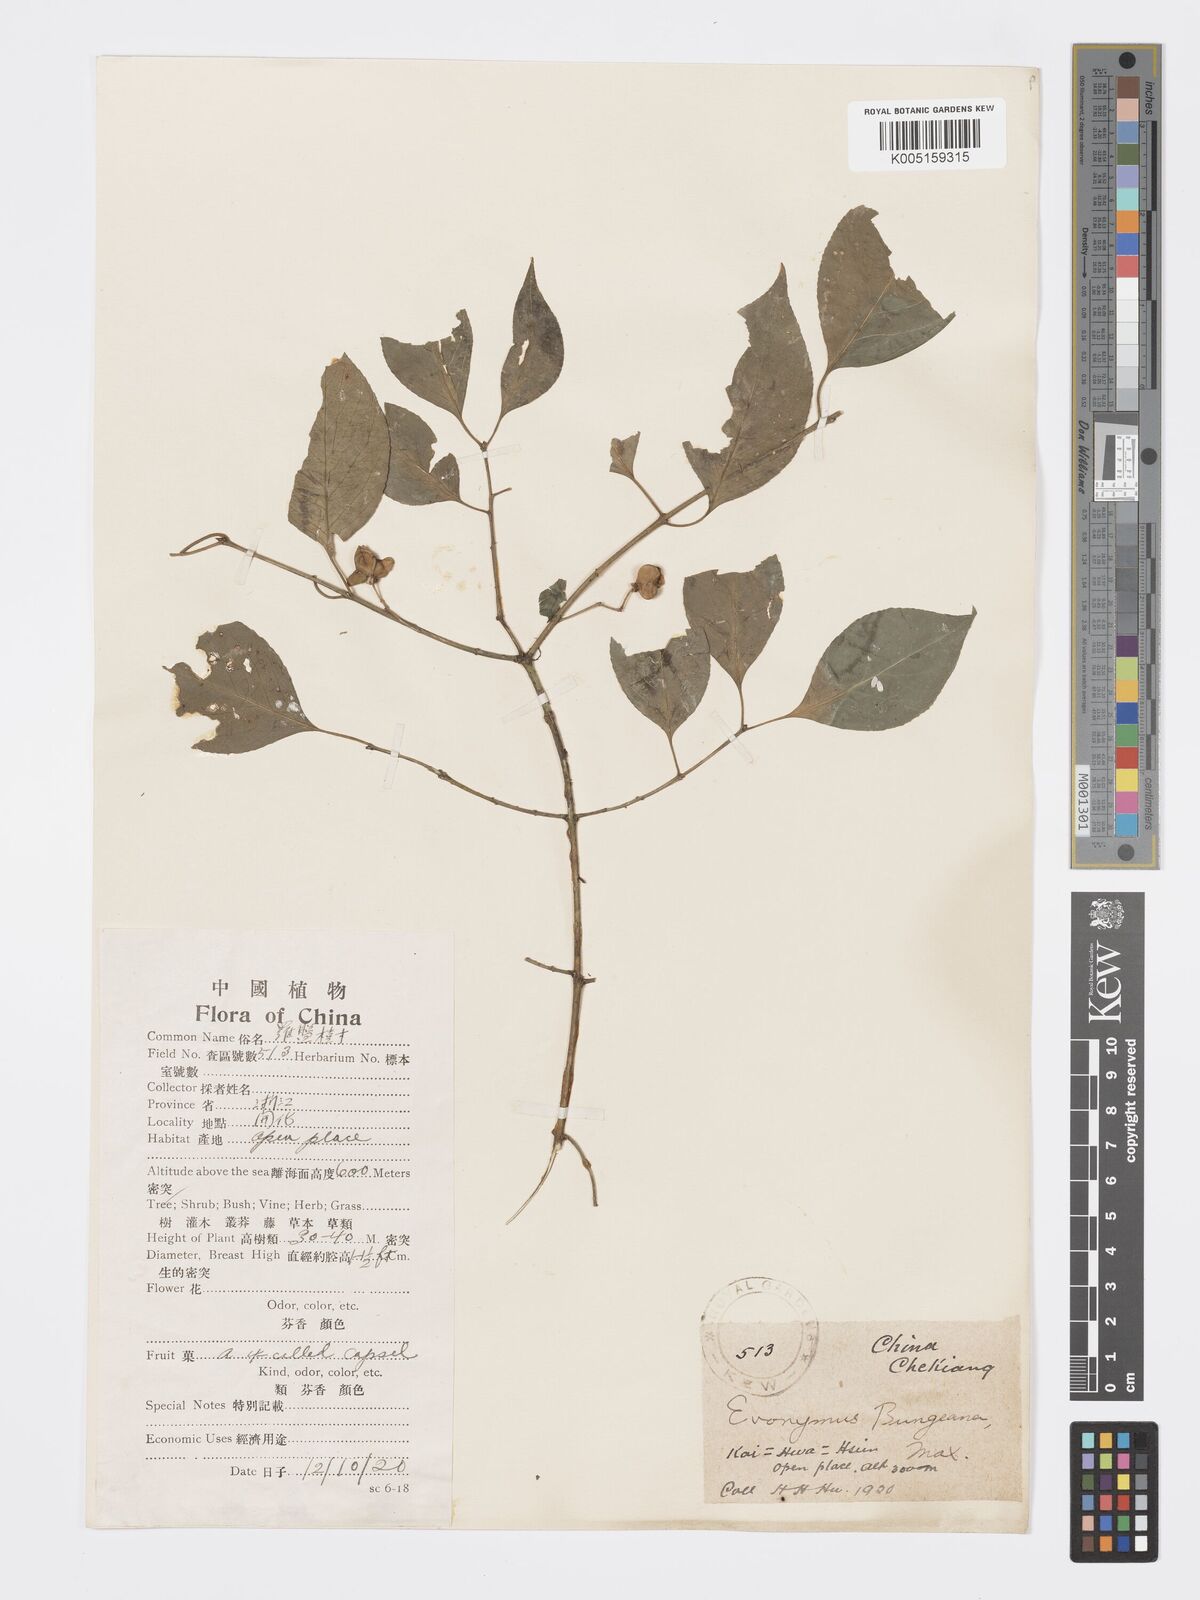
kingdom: Plantae
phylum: Tracheophyta
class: Magnoliopsida
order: Celastrales
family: Celastraceae
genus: Euonymus
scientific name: Euonymus maackii
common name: Hamilton's spindletree
